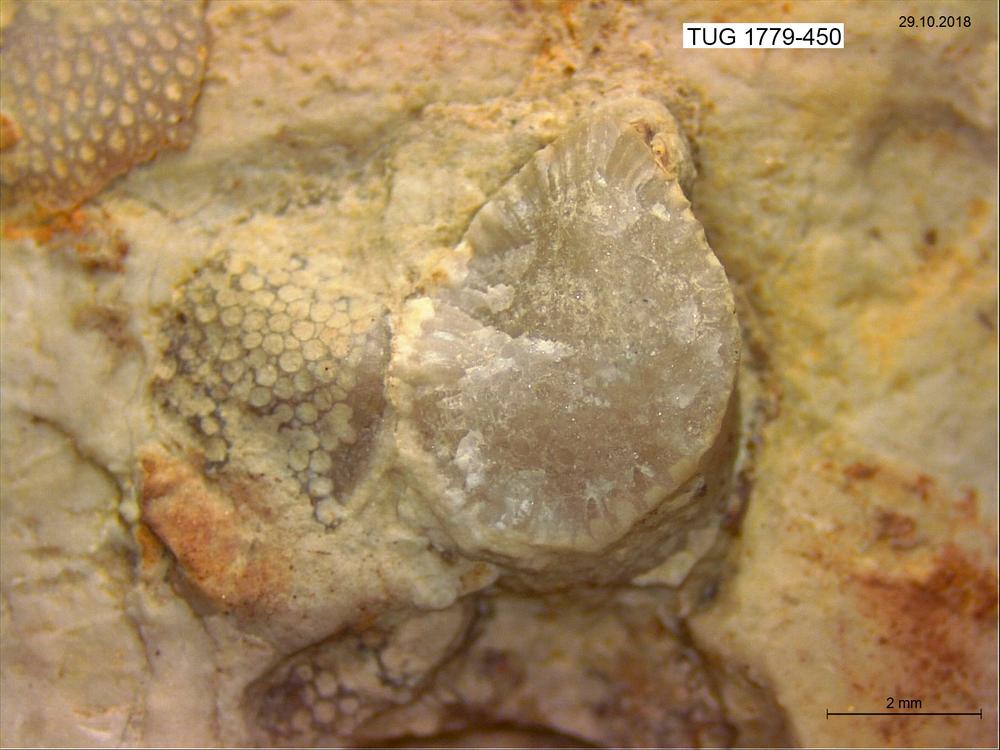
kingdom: Animalia
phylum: Bryozoa
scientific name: Bryozoa
